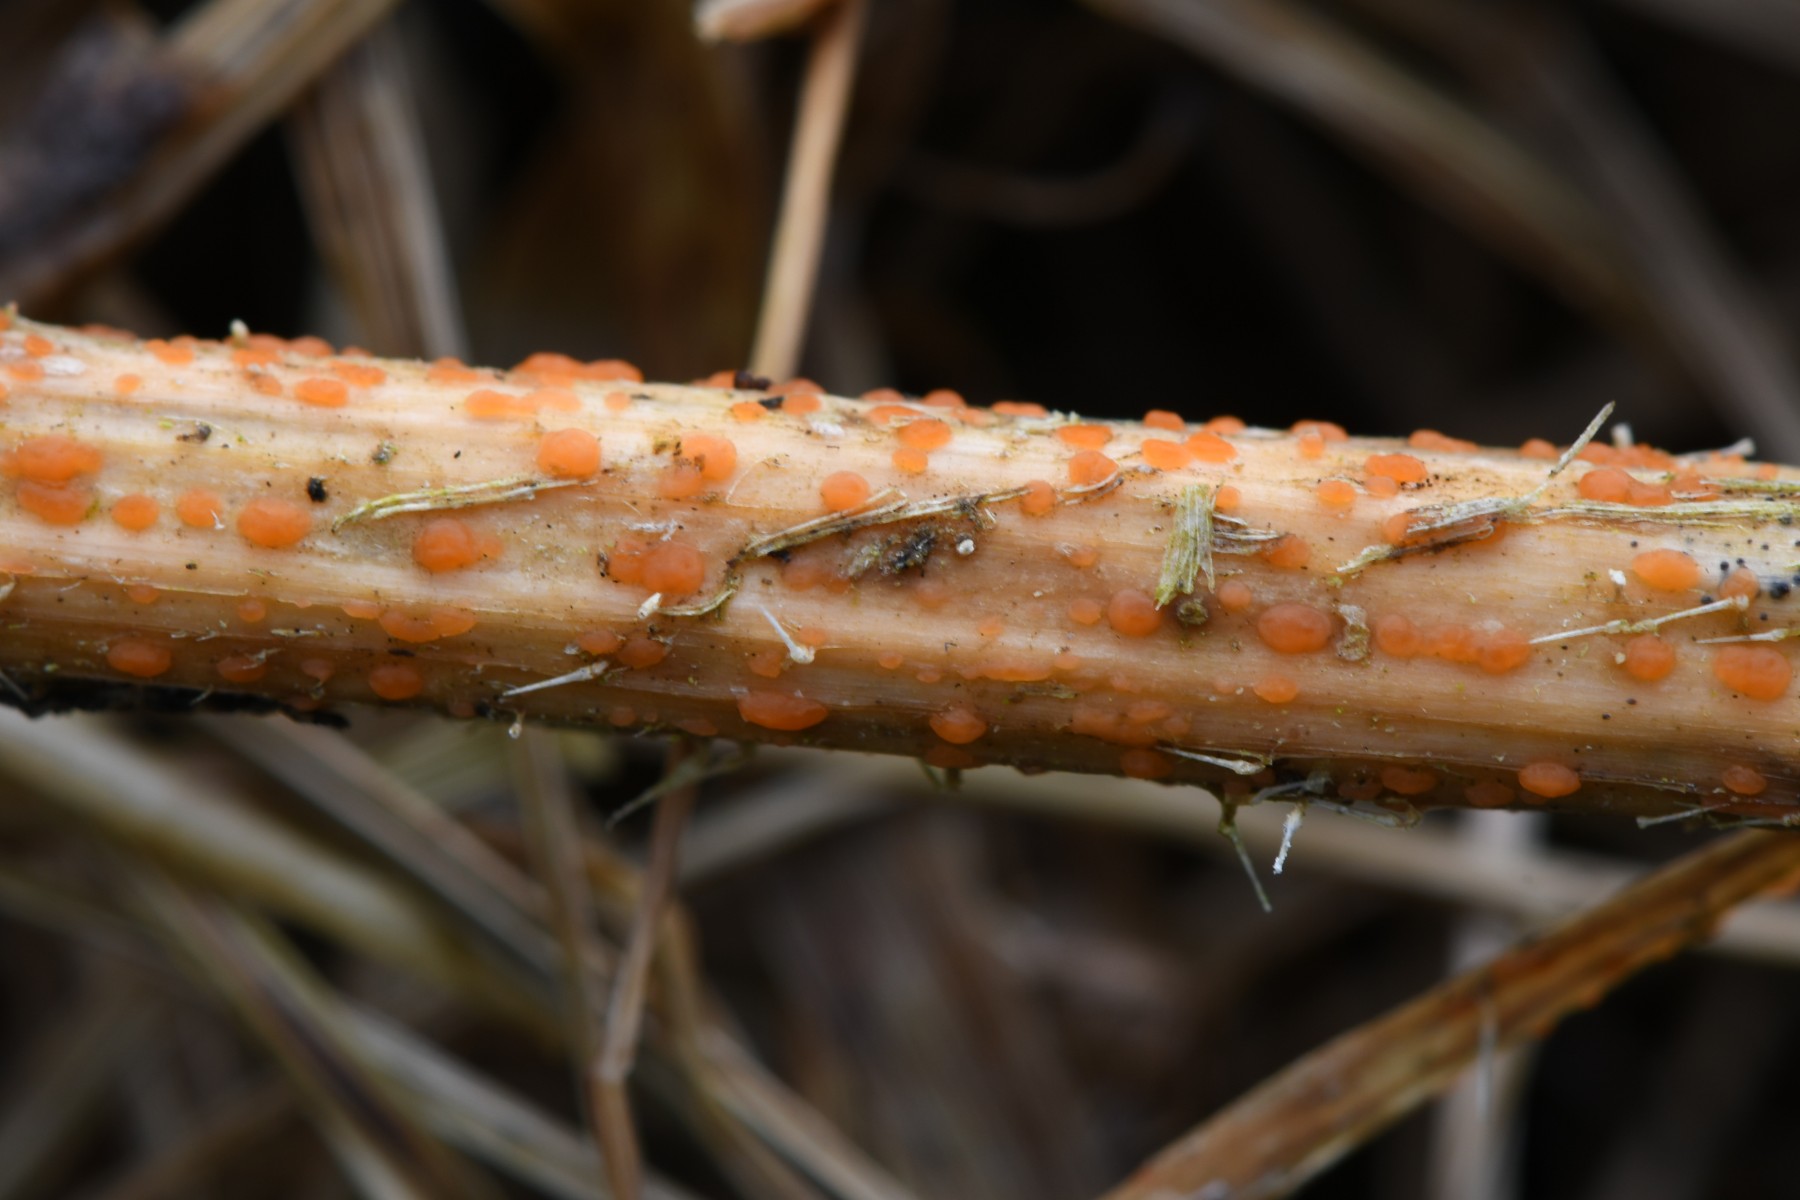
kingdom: Fungi
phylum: Ascomycota
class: Leotiomycetes
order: Helotiales
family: Calloriaceae
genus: Calloria
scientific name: Calloria urticae
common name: nælde-orangeskive
